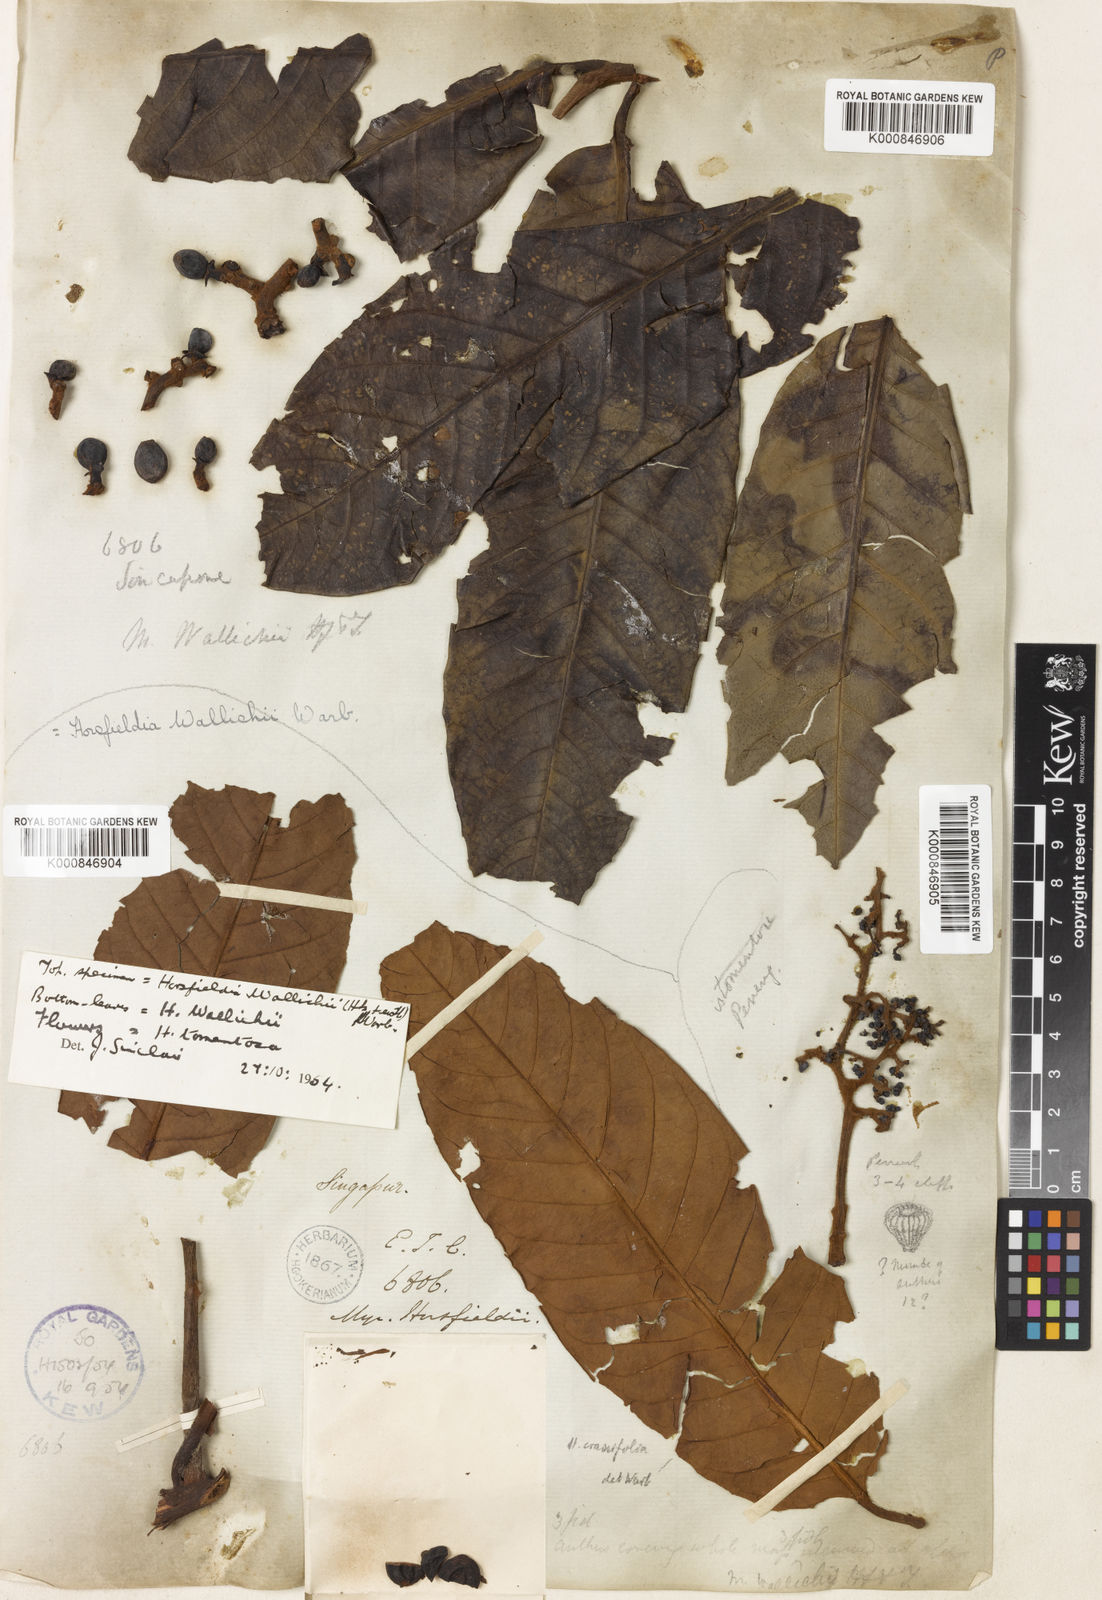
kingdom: Plantae
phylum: Tracheophyta
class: Magnoliopsida
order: Magnoliales
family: Myristicaceae
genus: Horsfieldia
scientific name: Horsfieldia wallichii
